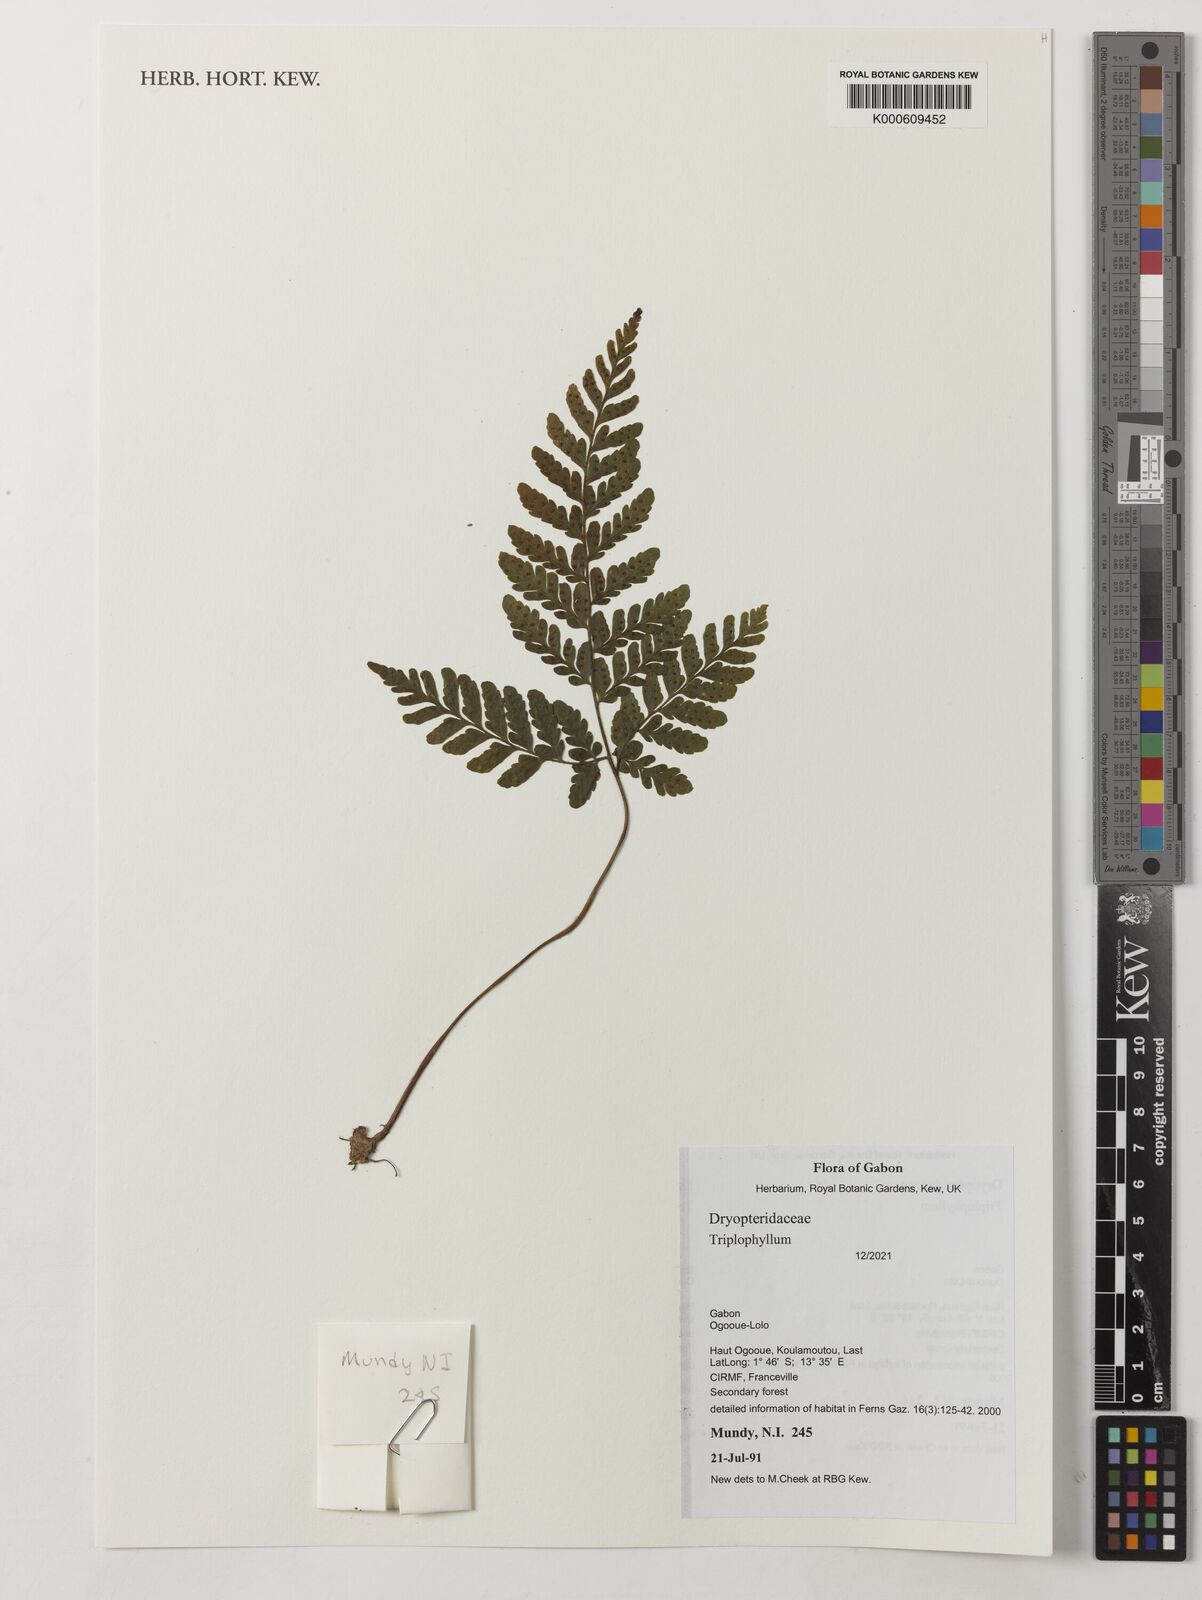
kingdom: Plantae
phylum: Tracheophyta
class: Polypodiopsida
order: Polypodiales
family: Tectariaceae
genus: Triplophyllum
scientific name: Triplophyllum
